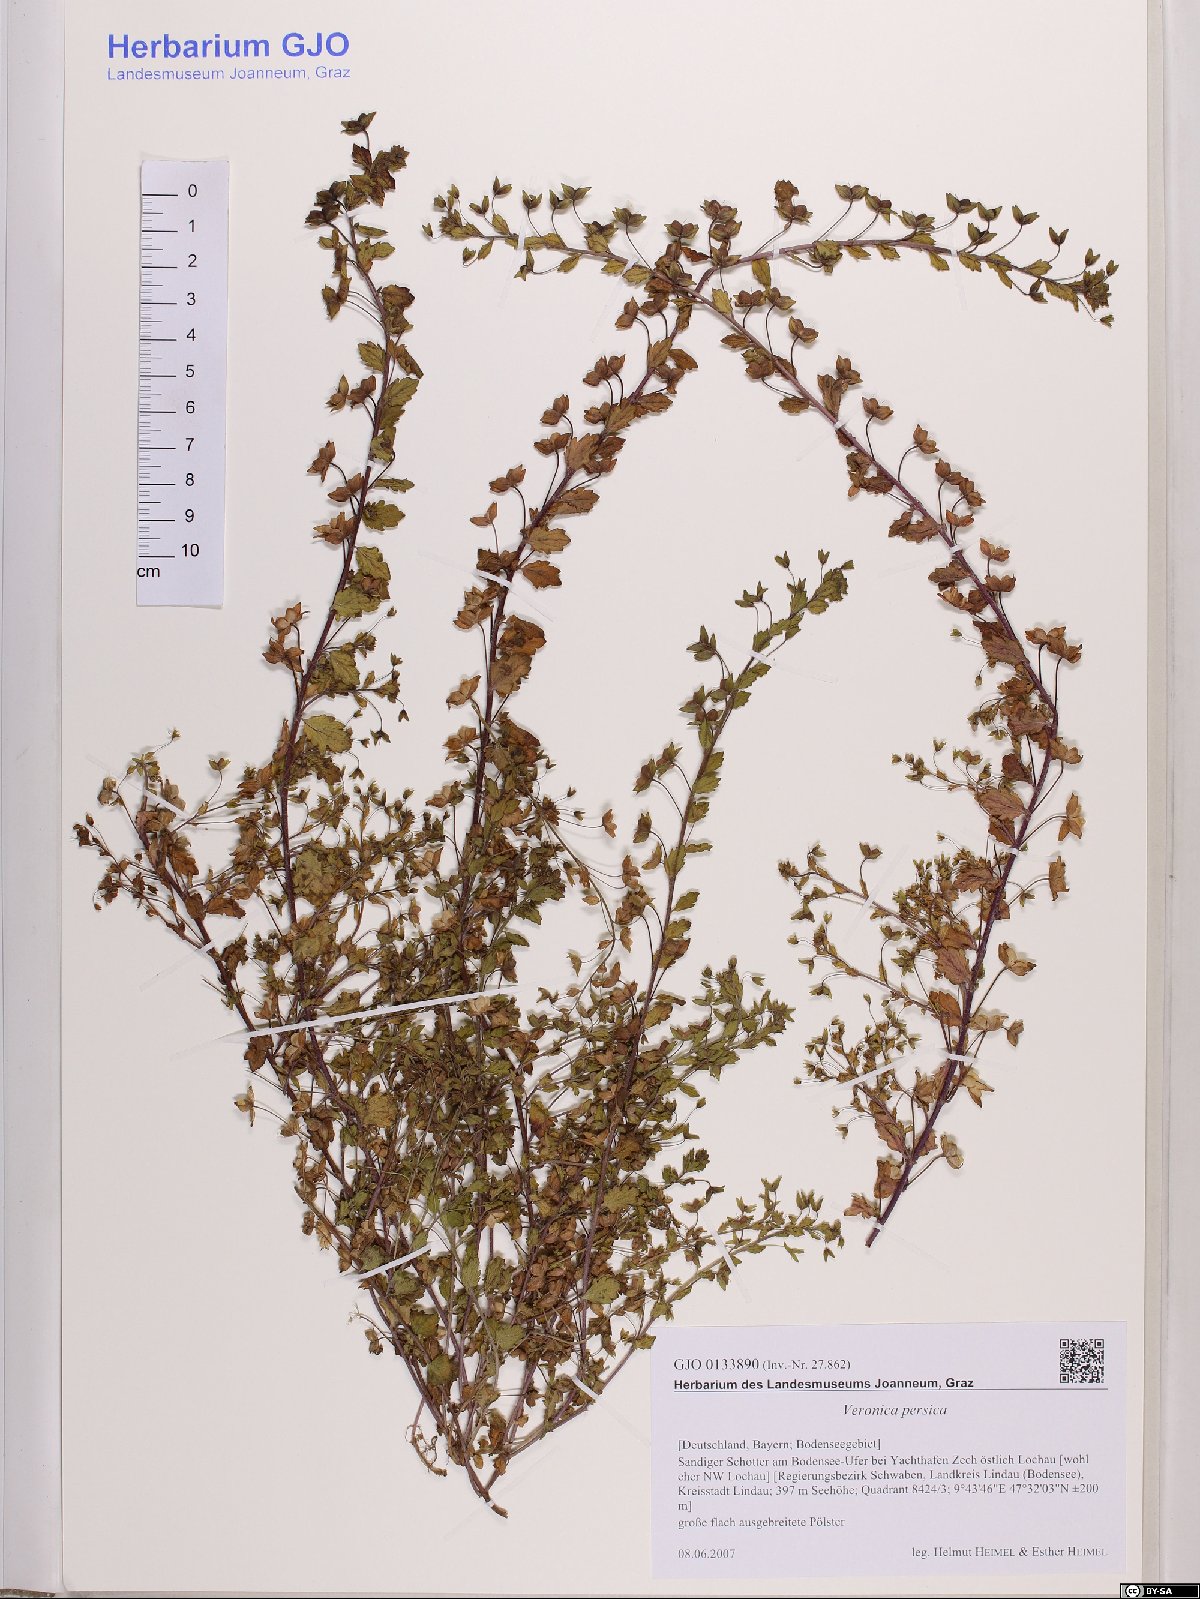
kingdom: Plantae
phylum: Tracheophyta
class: Magnoliopsida
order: Lamiales
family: Plantaginaceae
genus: Veronica
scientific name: Veronica persica
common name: Common field-speedwell
